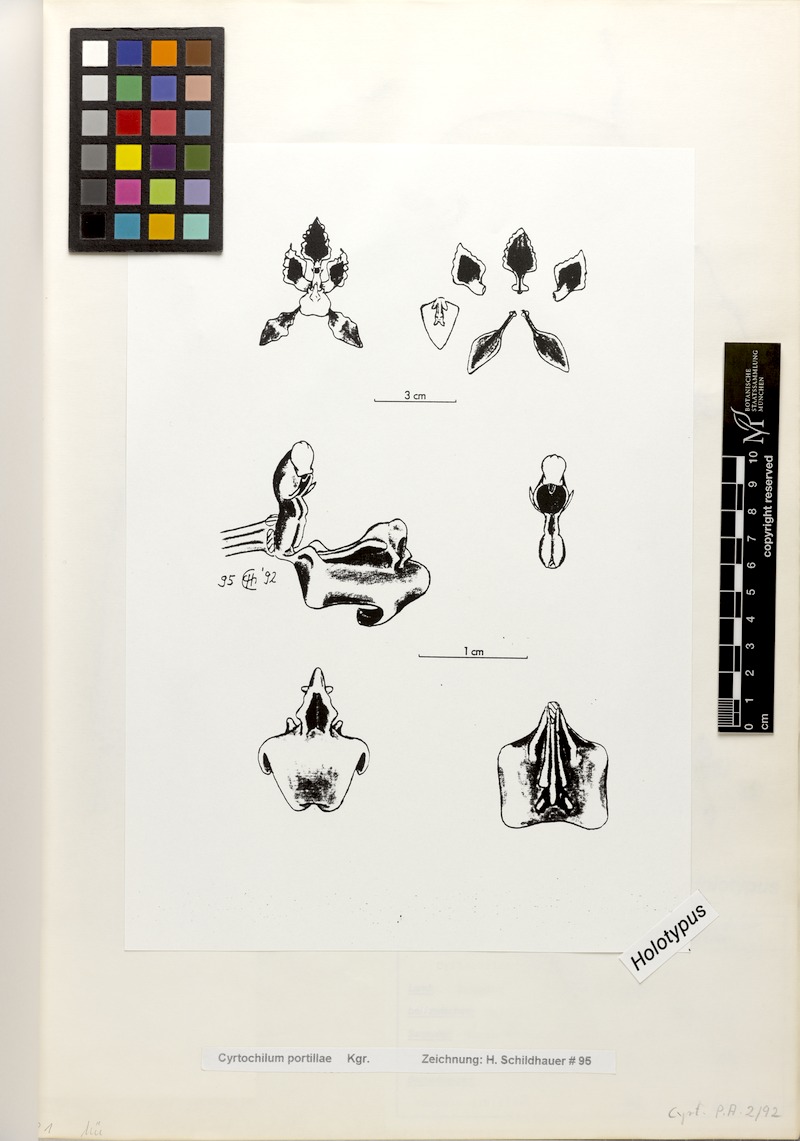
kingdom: Plantae
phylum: Tracheophyta
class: Liliopsida
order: Asparagales
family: Orchidaceae
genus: Cyrtochilum
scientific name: Cyrtochilum portillae
